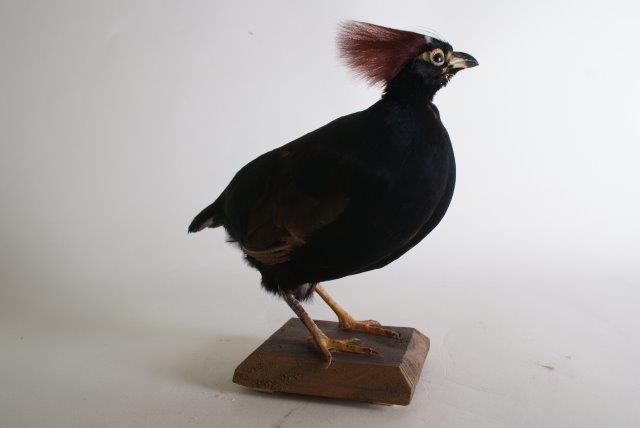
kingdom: Animalia
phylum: Chordata
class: Aves
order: Galliformes
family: Phasianidae
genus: Rollulus
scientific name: Rollulus rouloul
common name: Crested partridge
